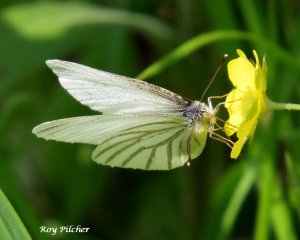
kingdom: Animalia
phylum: Arthropoda
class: Insecta
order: Lepidoptera
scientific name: Lepidoptera
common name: Butterflies
